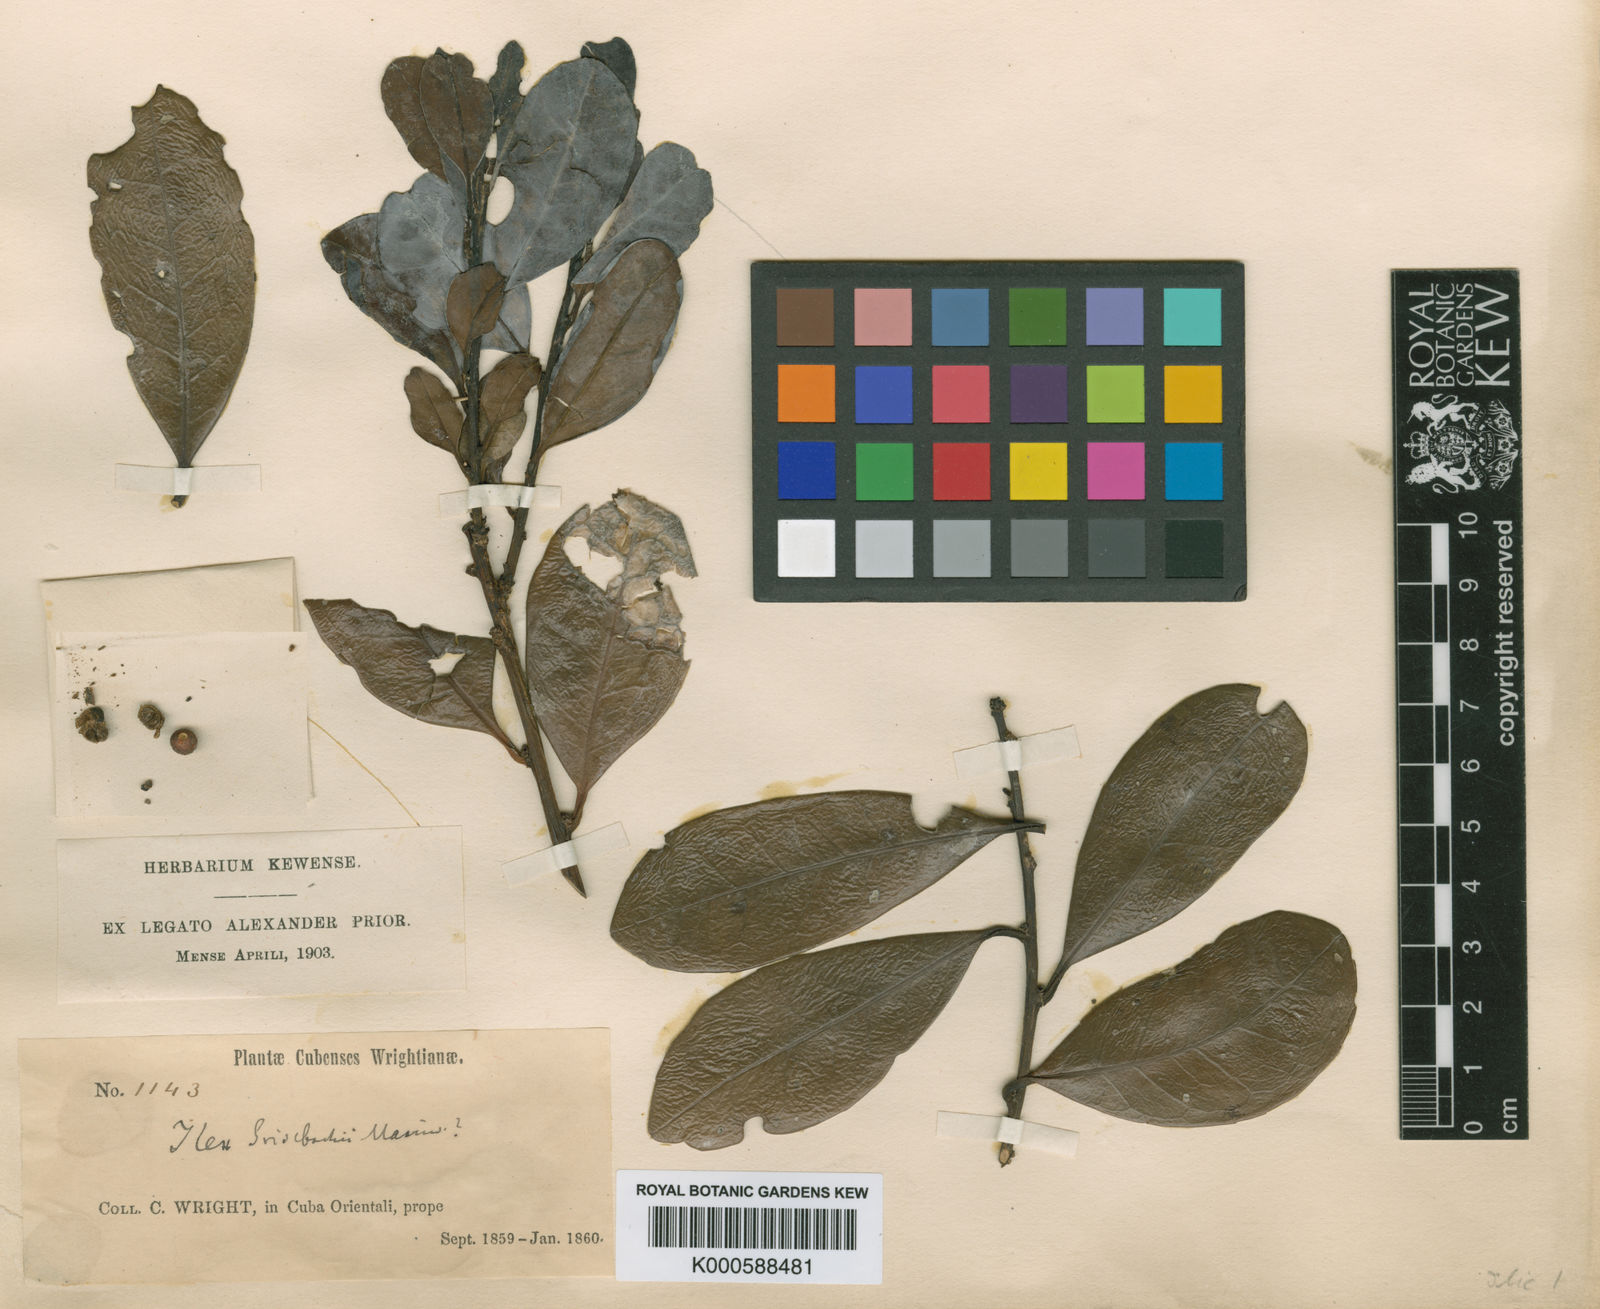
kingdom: Plantae
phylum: Tracheophyta
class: Magnoliopsida
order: Aquifoliales
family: Aquifoliaceae
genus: Ilex
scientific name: Ilex nitida
